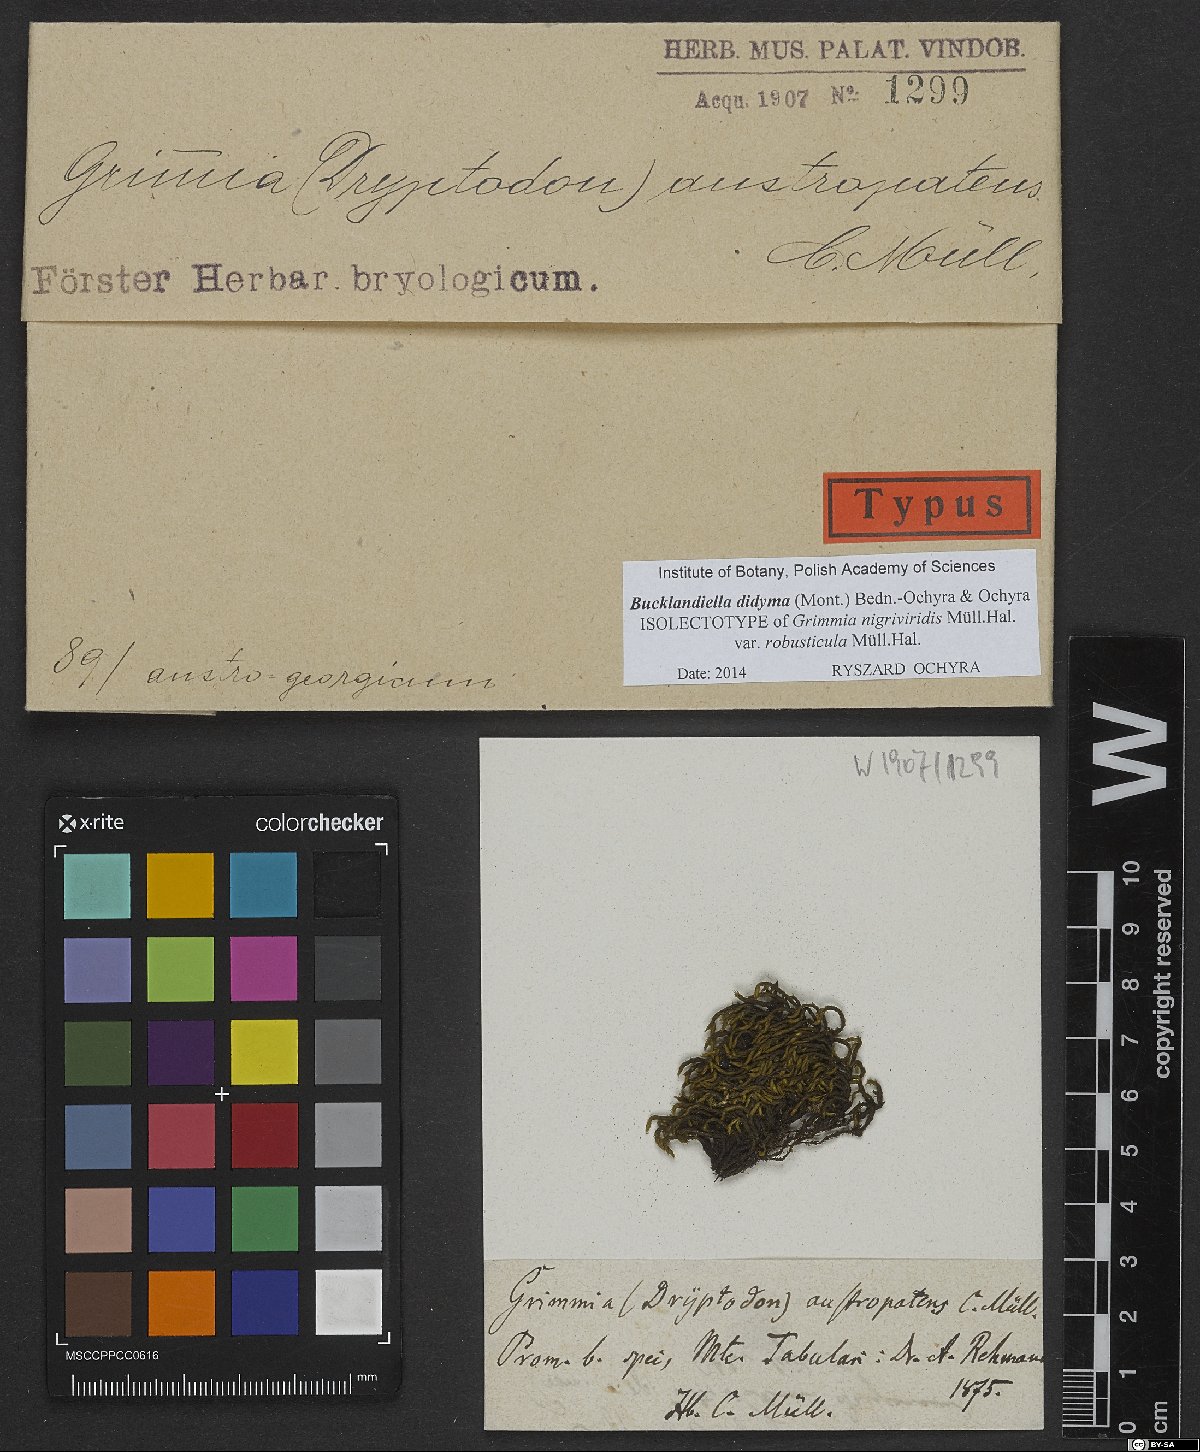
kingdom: Plantae
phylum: Bryophyta
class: Bryopsida
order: Grimmiales
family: Grimmiaceae
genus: Bucklandiella
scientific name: Bucklandiella lamprocarpa
